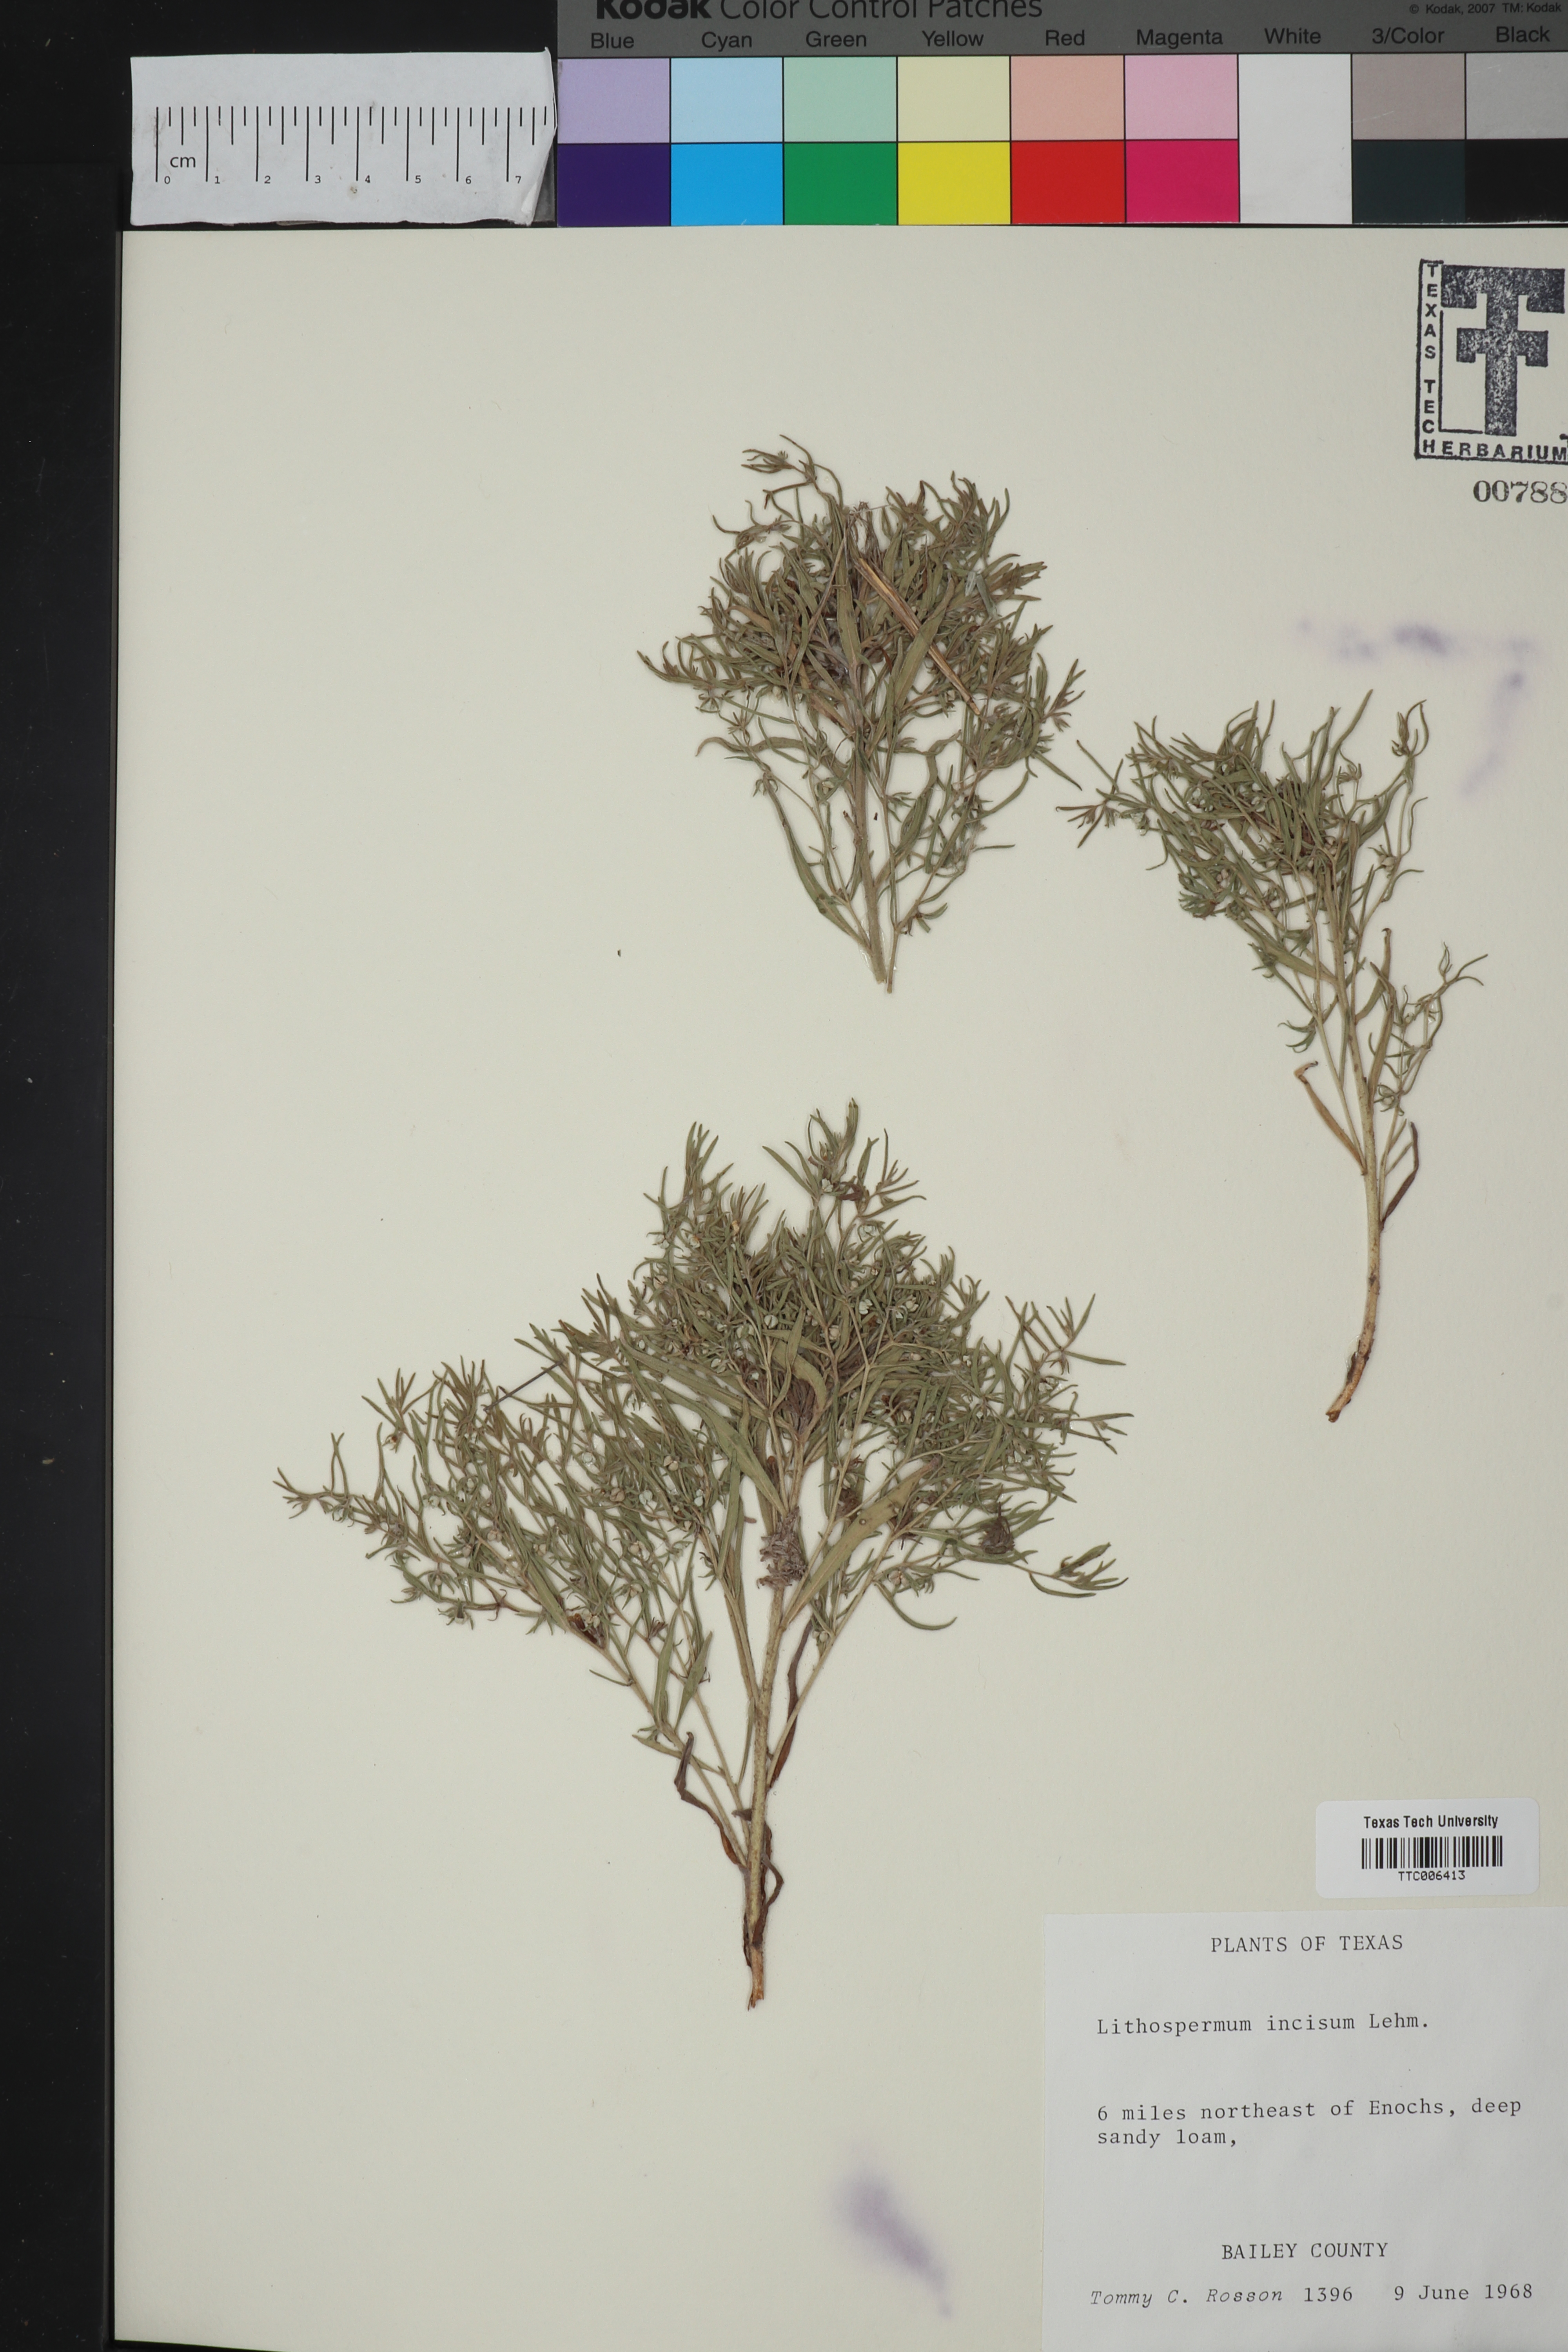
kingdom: Plantae
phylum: Tracheophyta
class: Magnoliopsida
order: Boraginales
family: Boraginaceae
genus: Lithospermum
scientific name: Lithospermum incisum
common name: Fringed gromwell
